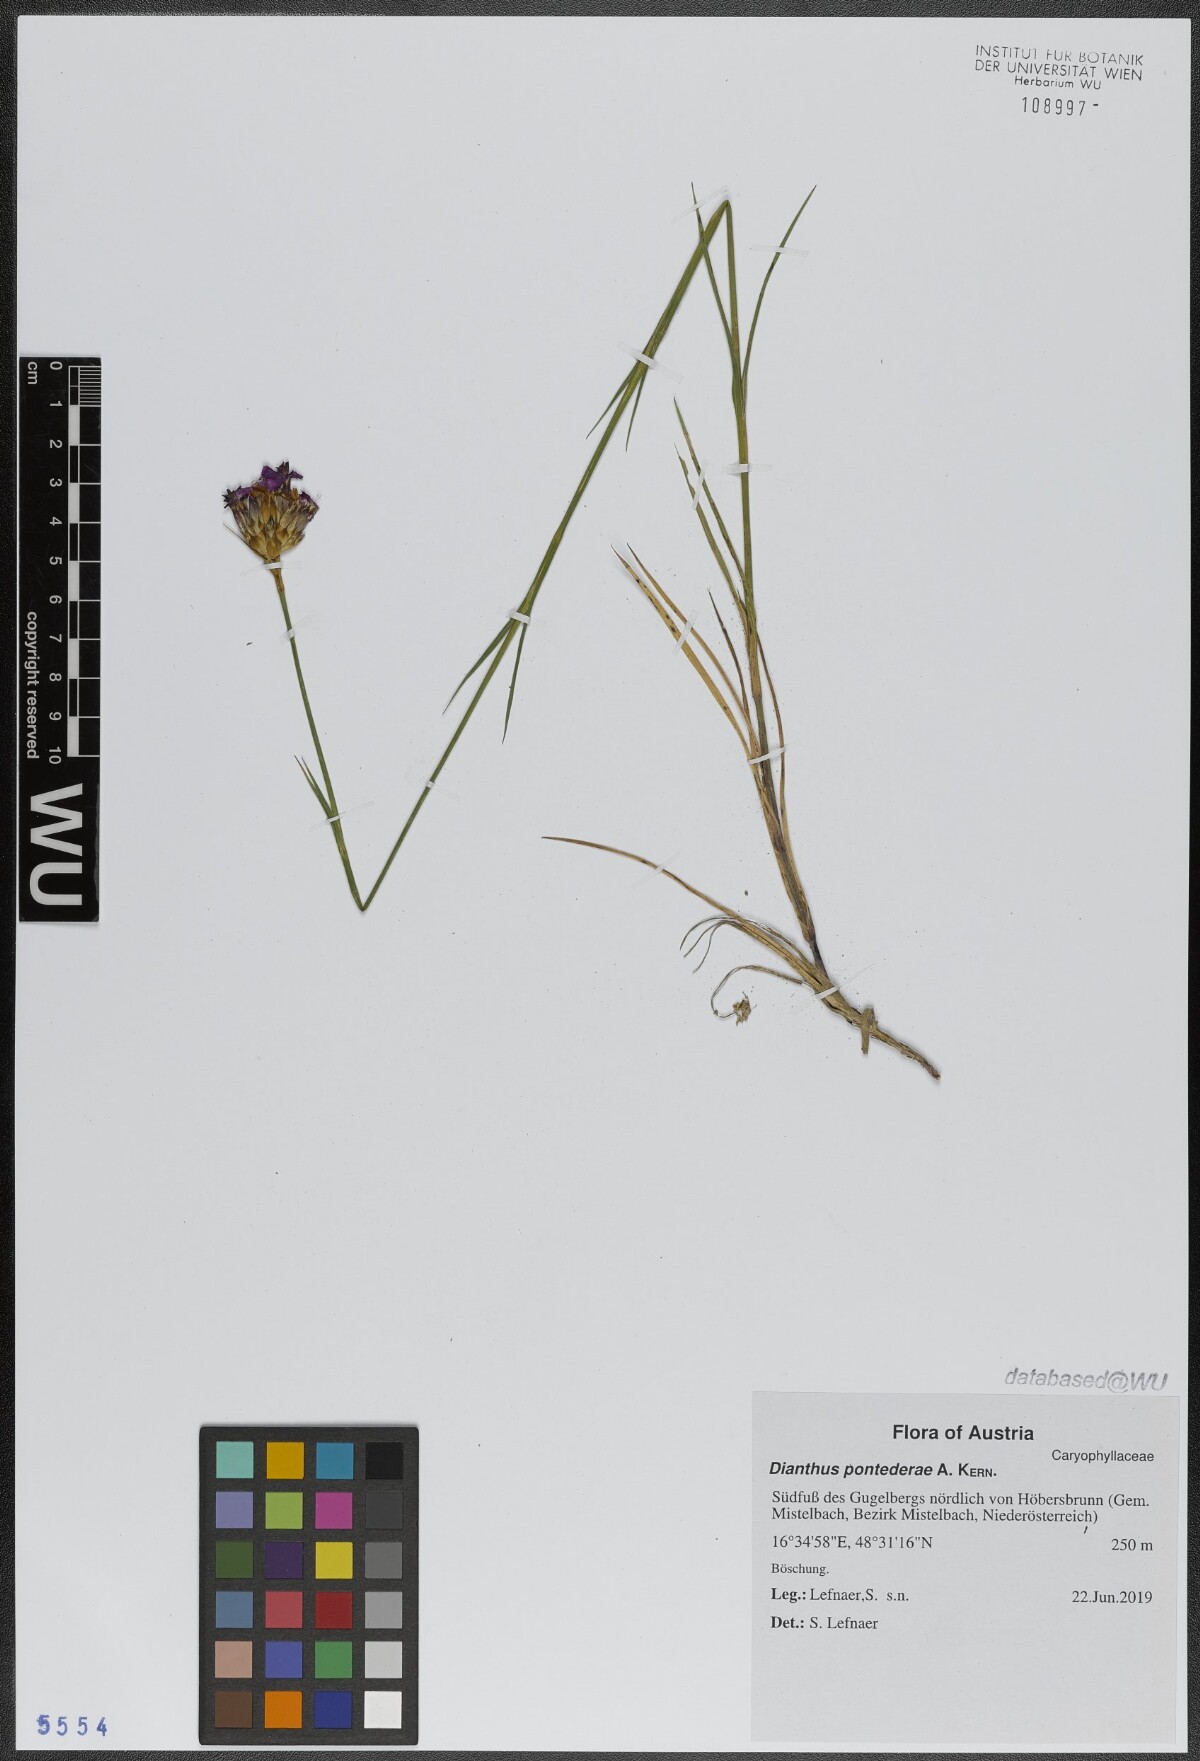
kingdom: Plantae
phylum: Tracheophyta
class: Magnoliopsida
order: Caryophyllales
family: Caryophyllaceae
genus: Dianthus
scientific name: Dianthus pontederae
